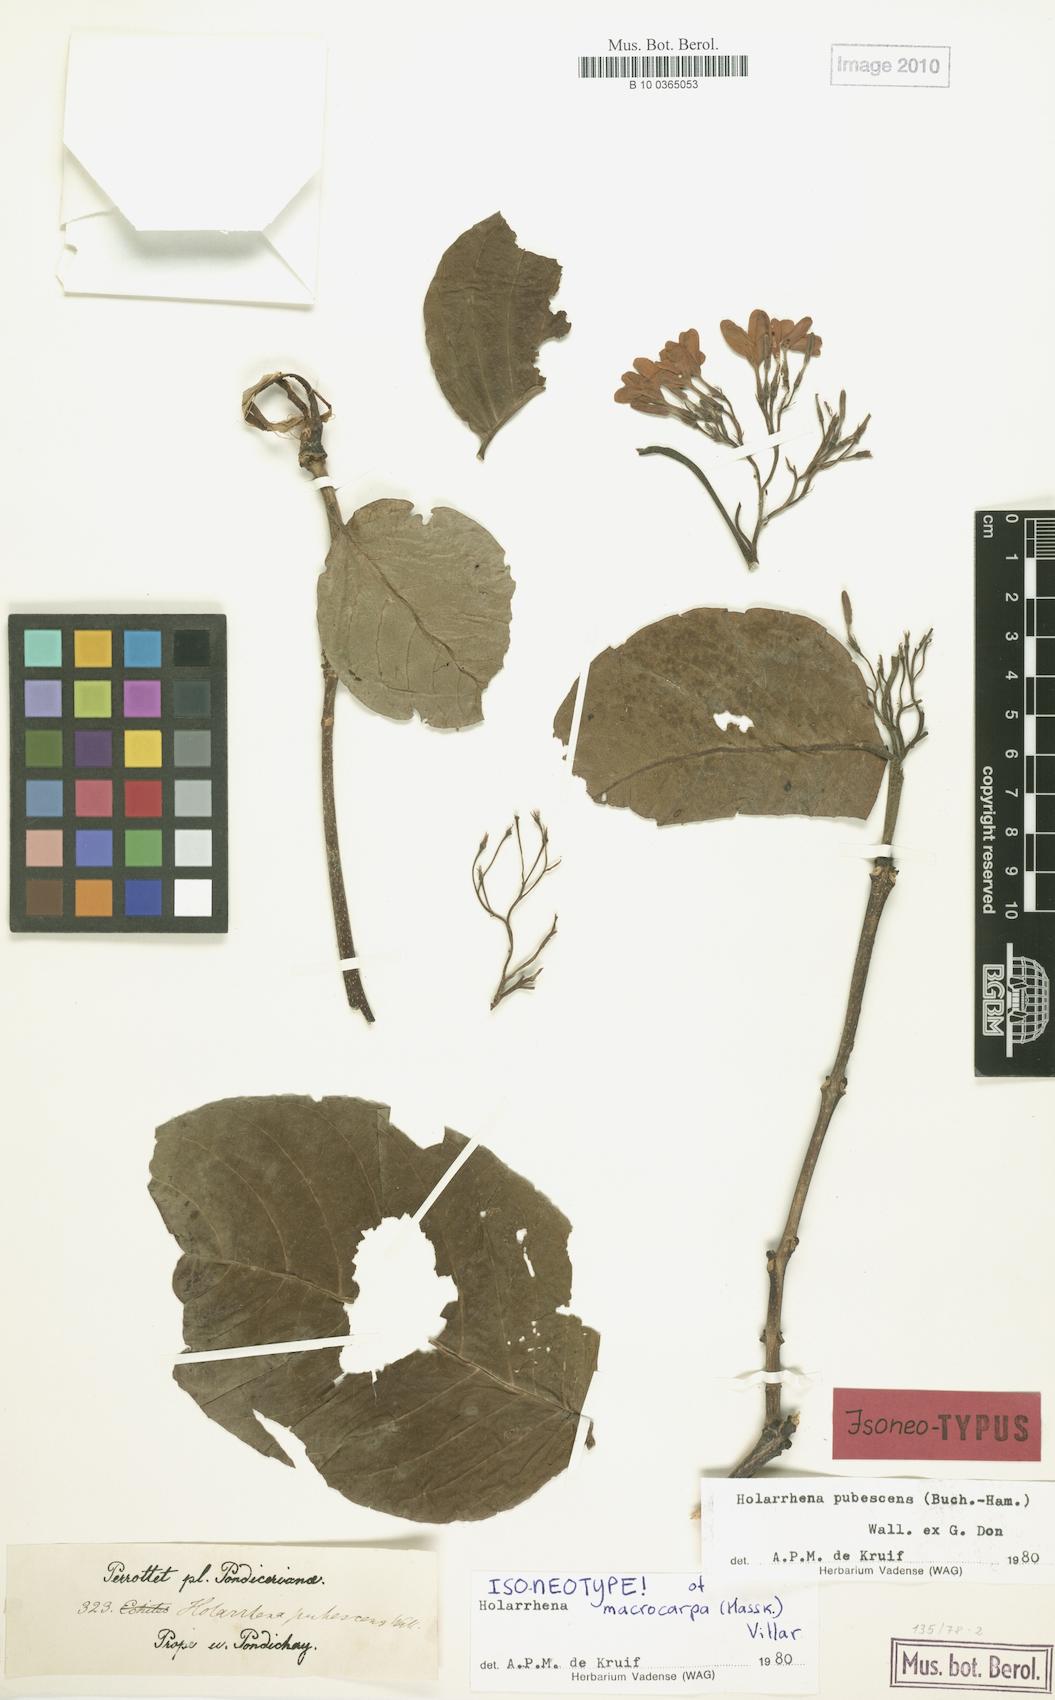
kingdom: Plantae
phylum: Tracheophyta
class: Magnoliopsida
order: Gentianales
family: Apocynaceae
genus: Holarrhena
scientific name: Holarrhena pubescens
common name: Bitter oleander
